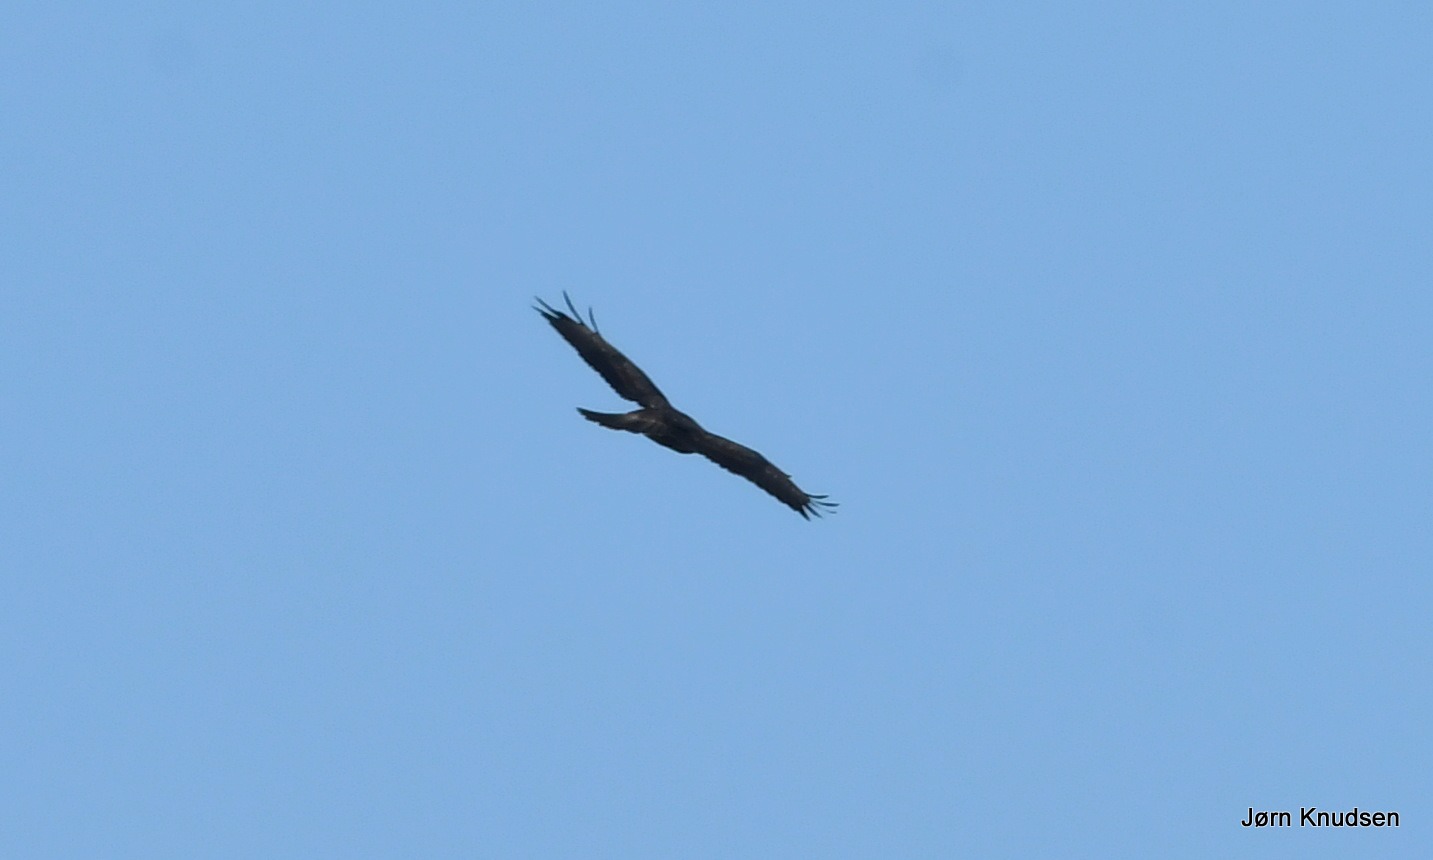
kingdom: Animalia
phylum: Chordata
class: Aves
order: Accipitriformes
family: Accipitridae
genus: Buteo
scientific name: Buteo buteo
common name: Musvåge
